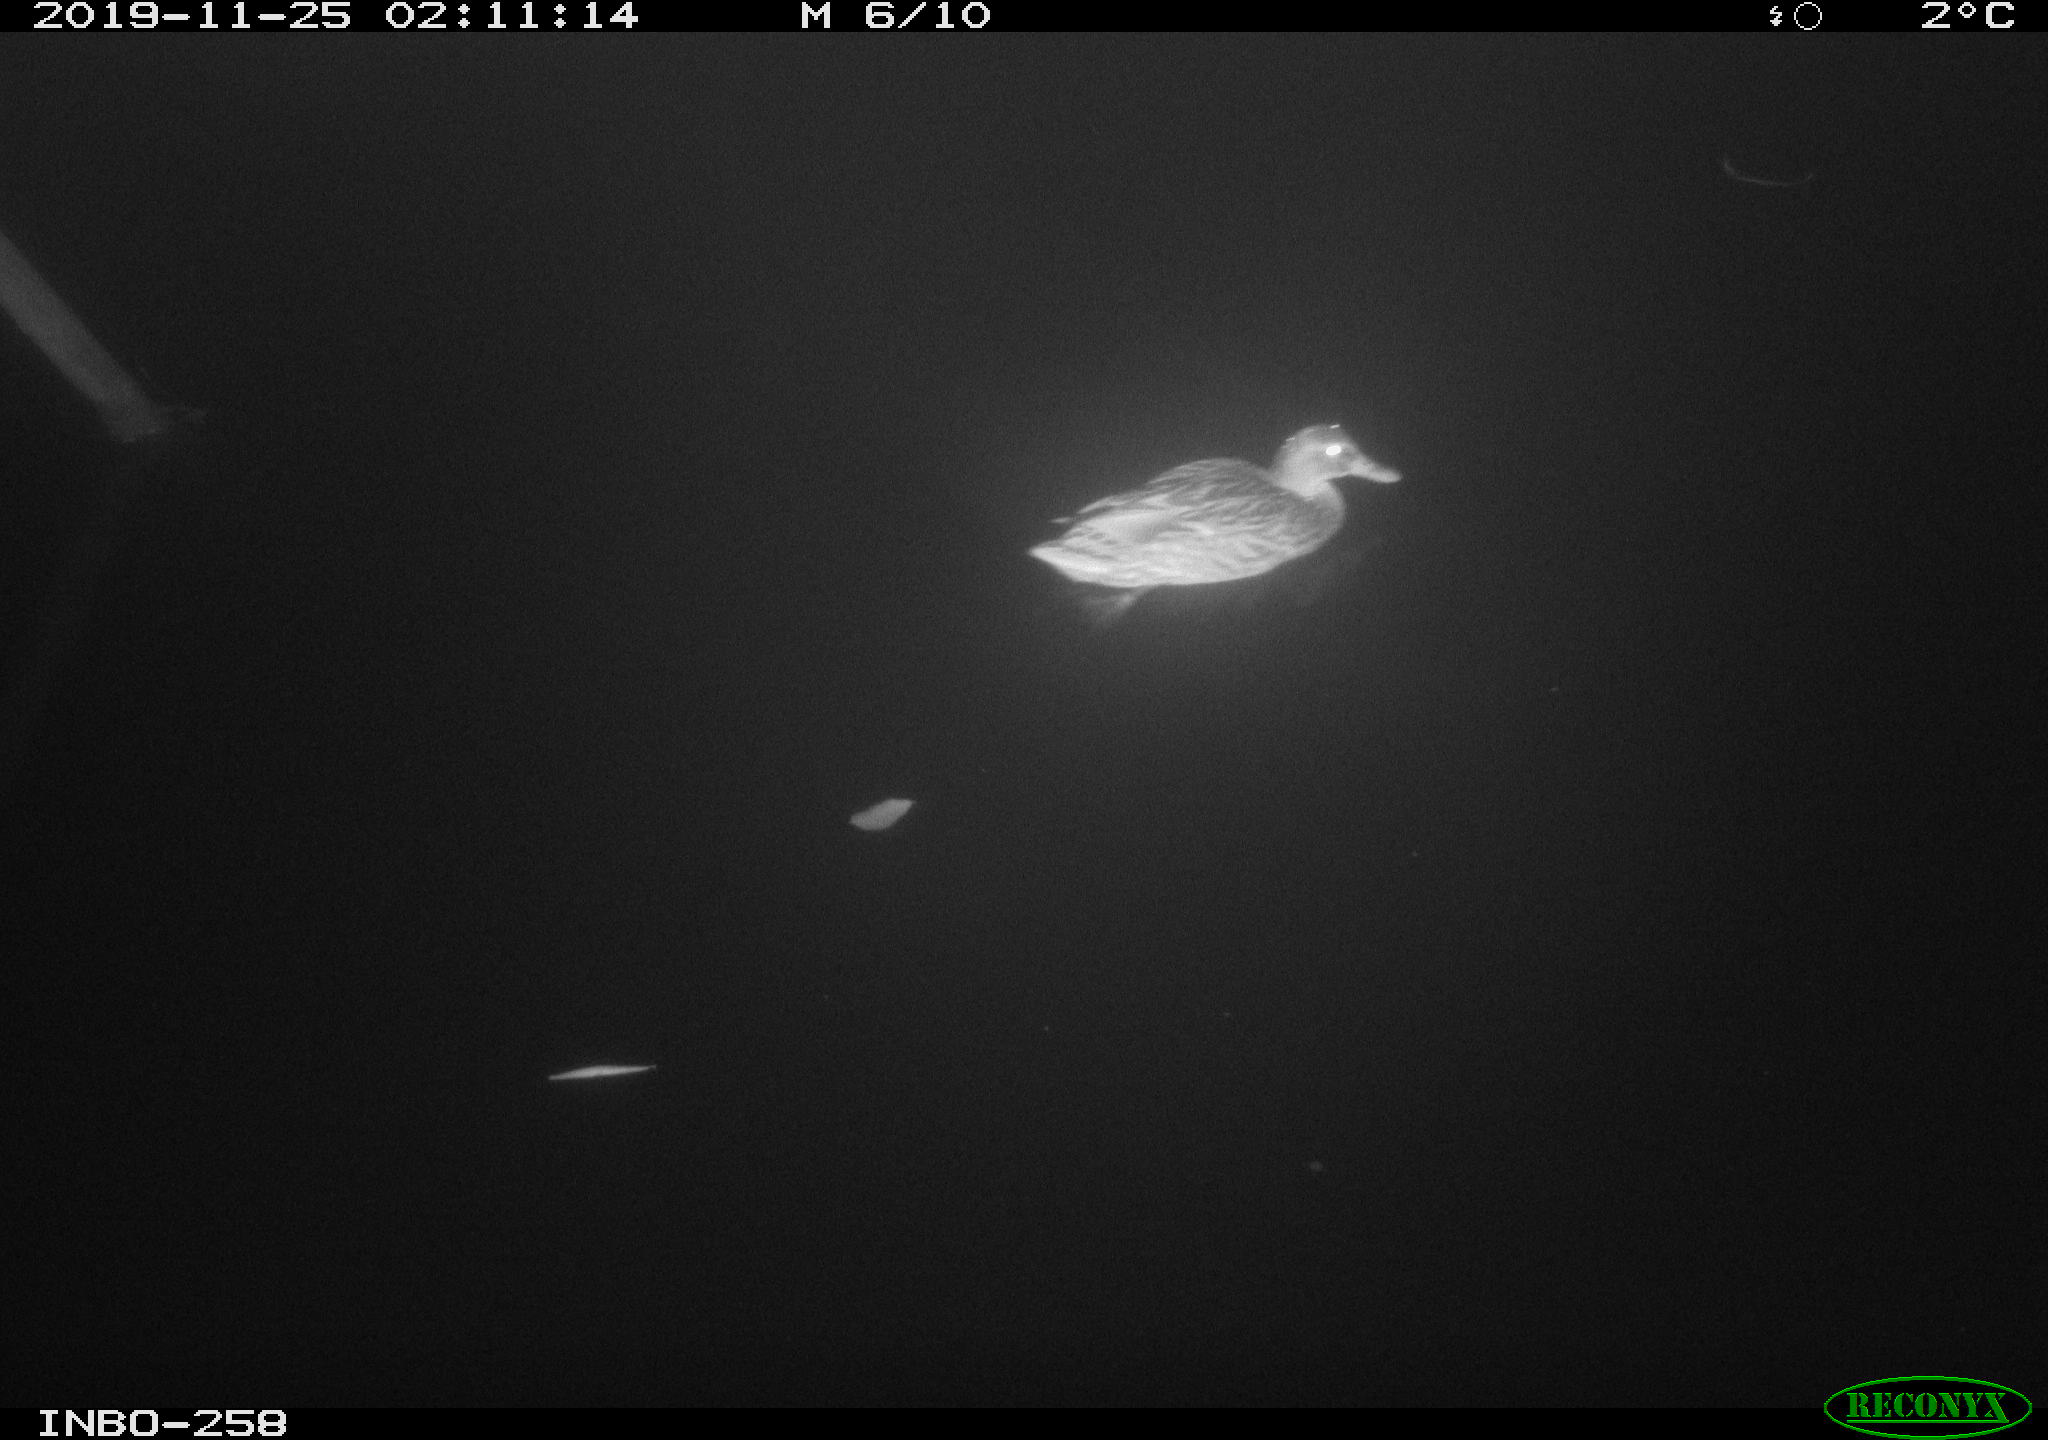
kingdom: Animalia
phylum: Chordata
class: Aves
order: Anseriformes
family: Anatidae
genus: Anas
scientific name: Anas platyrhynchos
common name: Mallard
